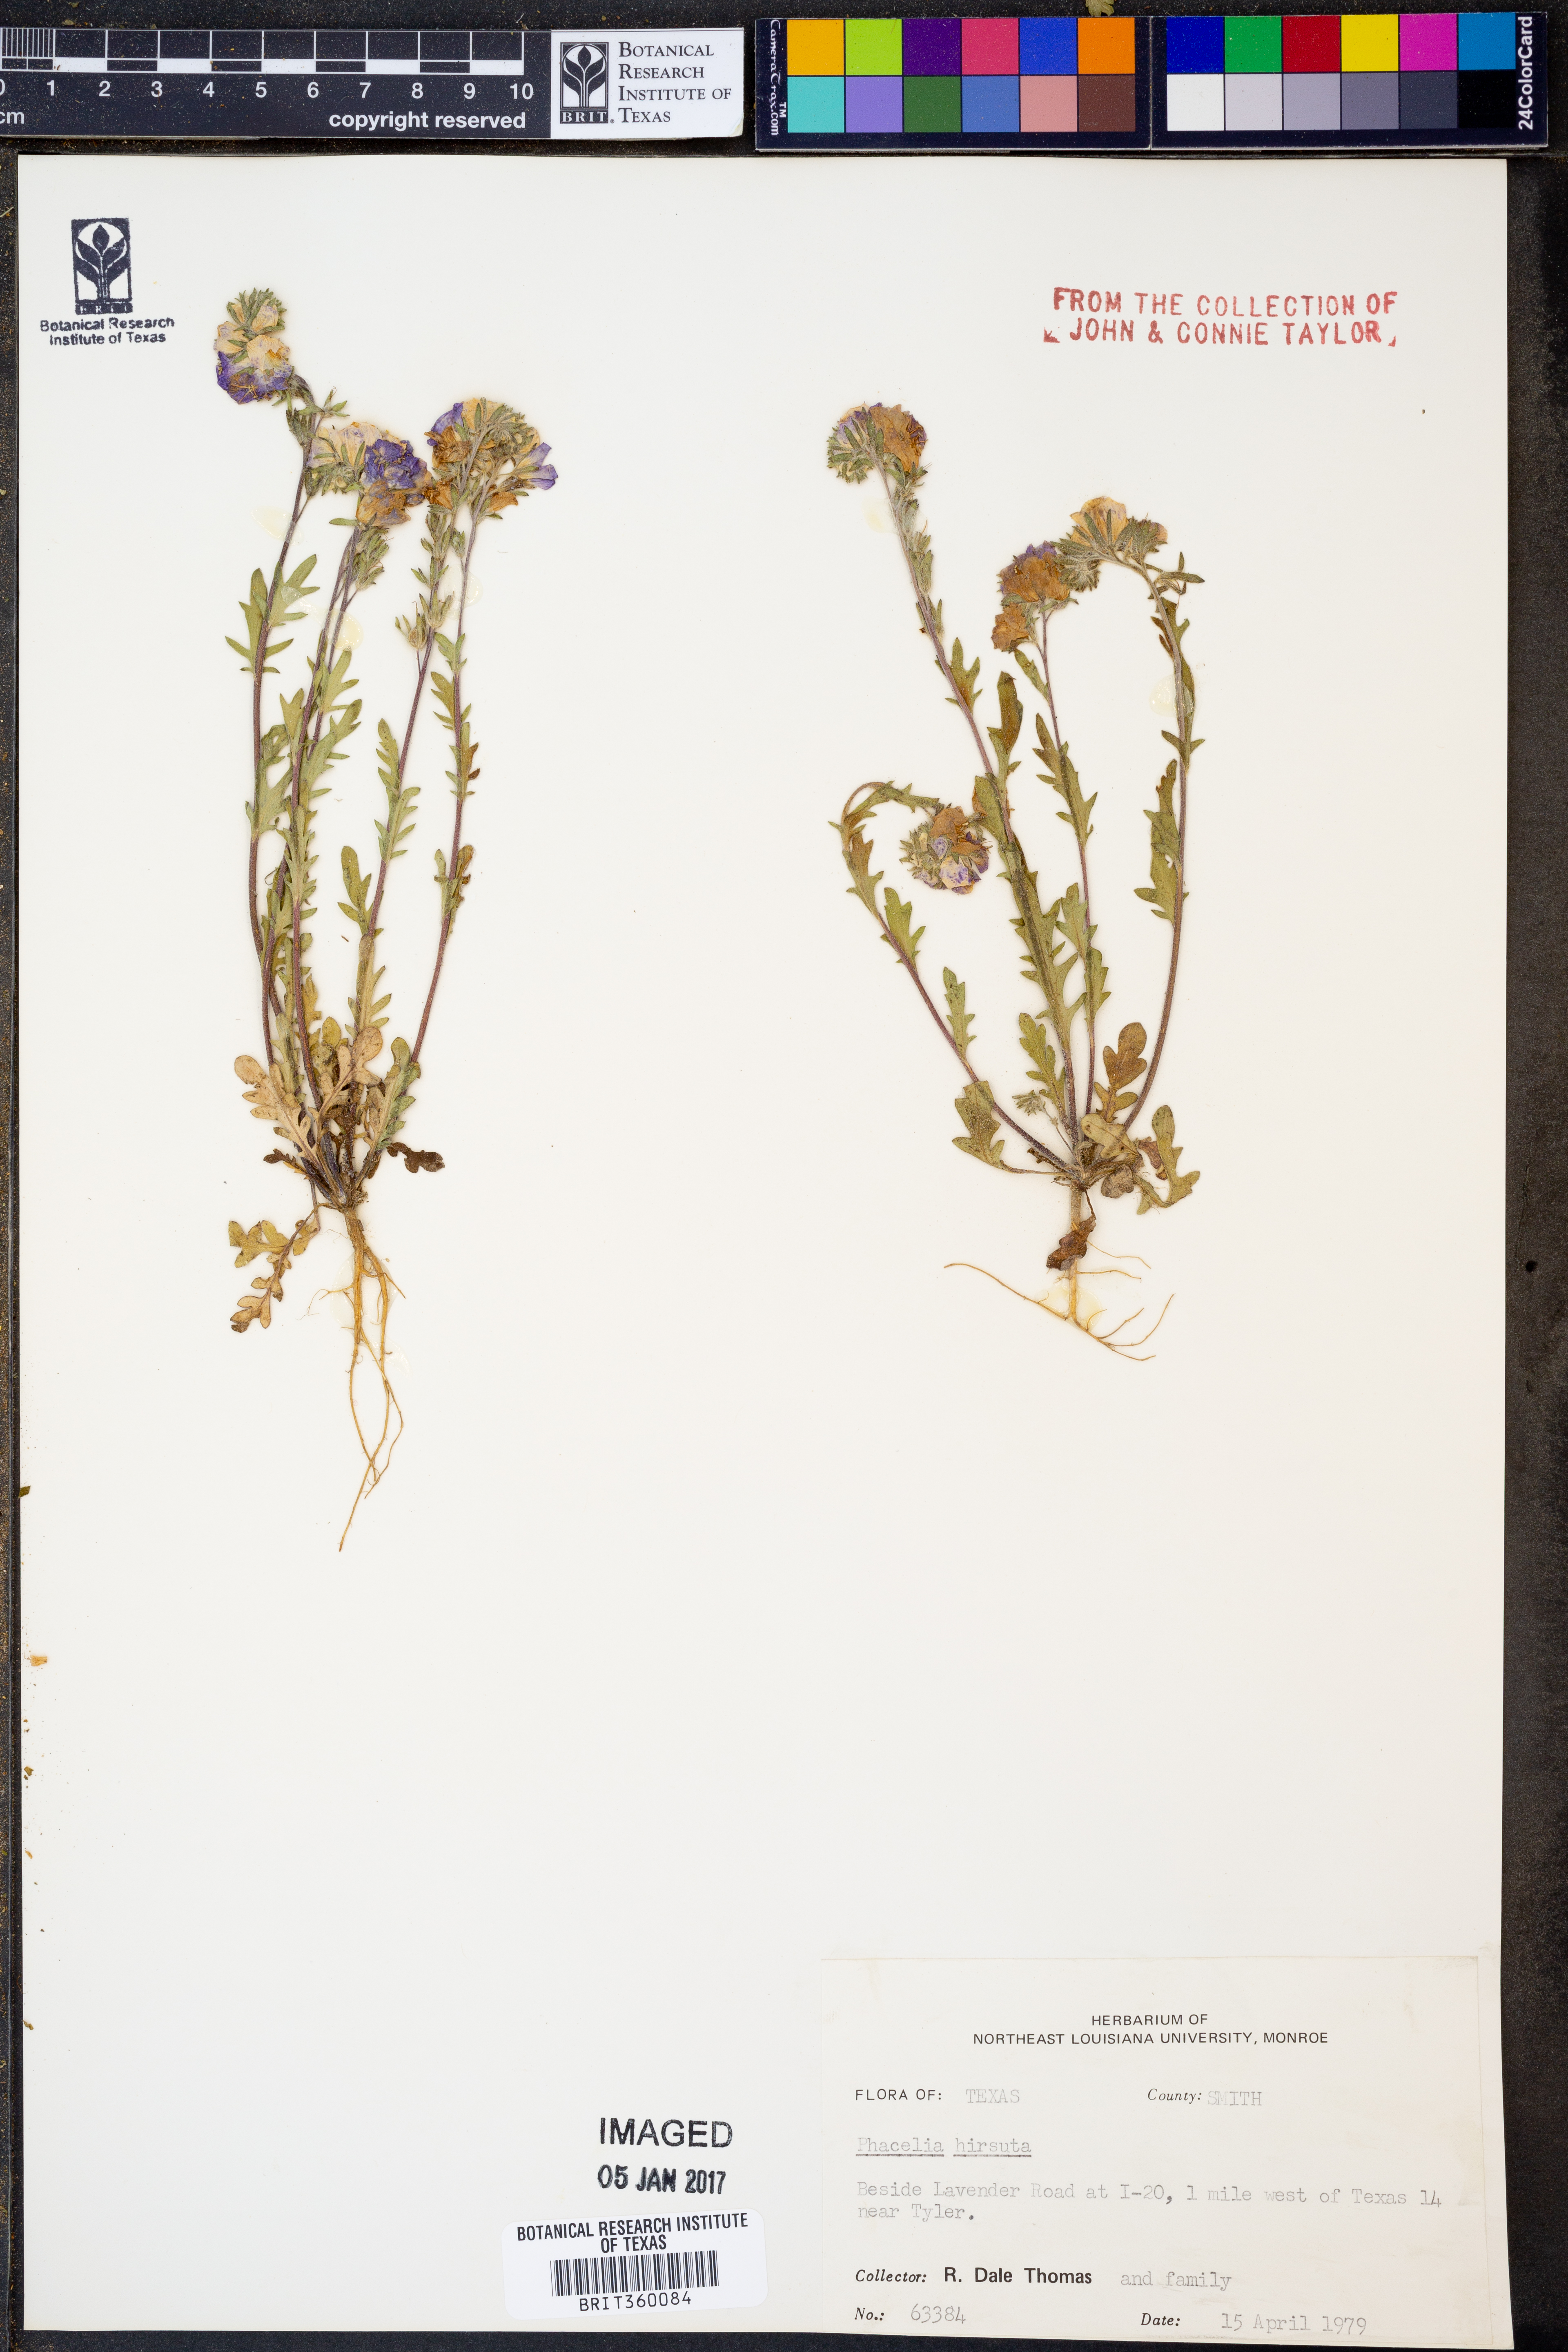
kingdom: Plantae
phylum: Tracheophyta
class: Magnoliopsida
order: Boraginales
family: Hydrophyllaceae
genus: Phacelia
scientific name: Phacelia hirsuta
